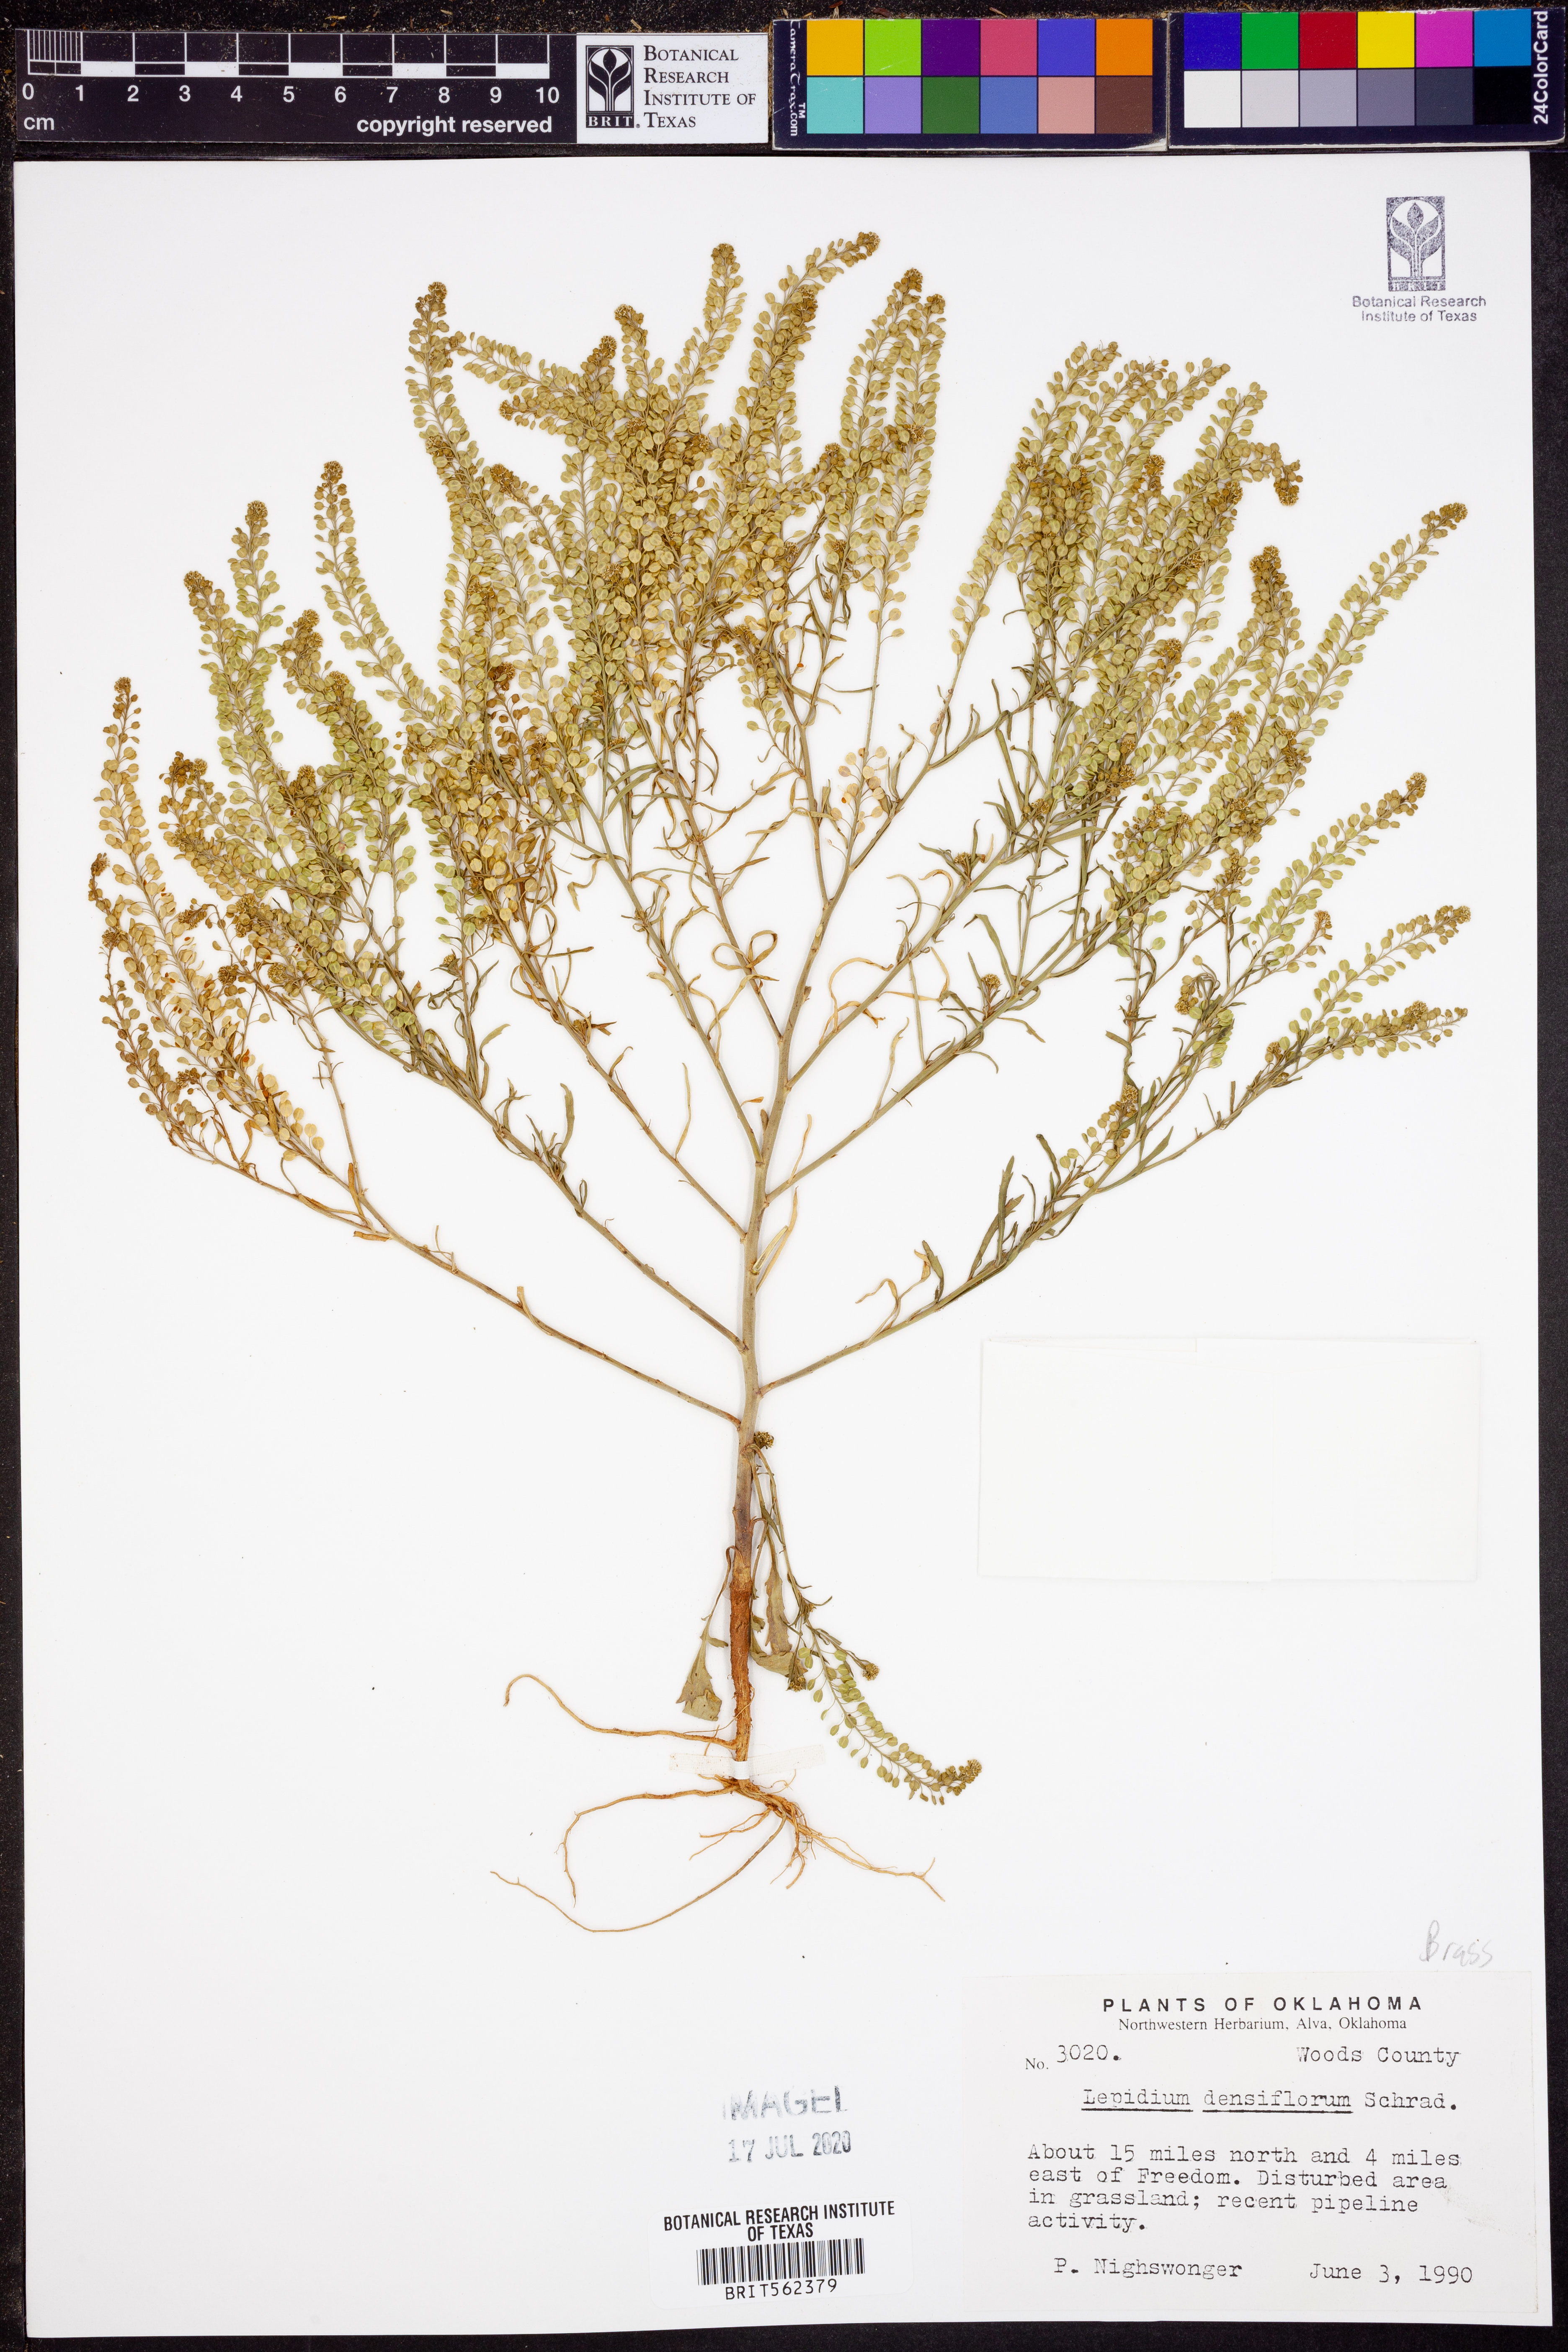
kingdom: Plantae
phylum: Tracheophyta
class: Magnoliopsida
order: Brassicales
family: Brassicaceae
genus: Lepidium
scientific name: Lepidium densiflorum
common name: Miner's pepperwort
